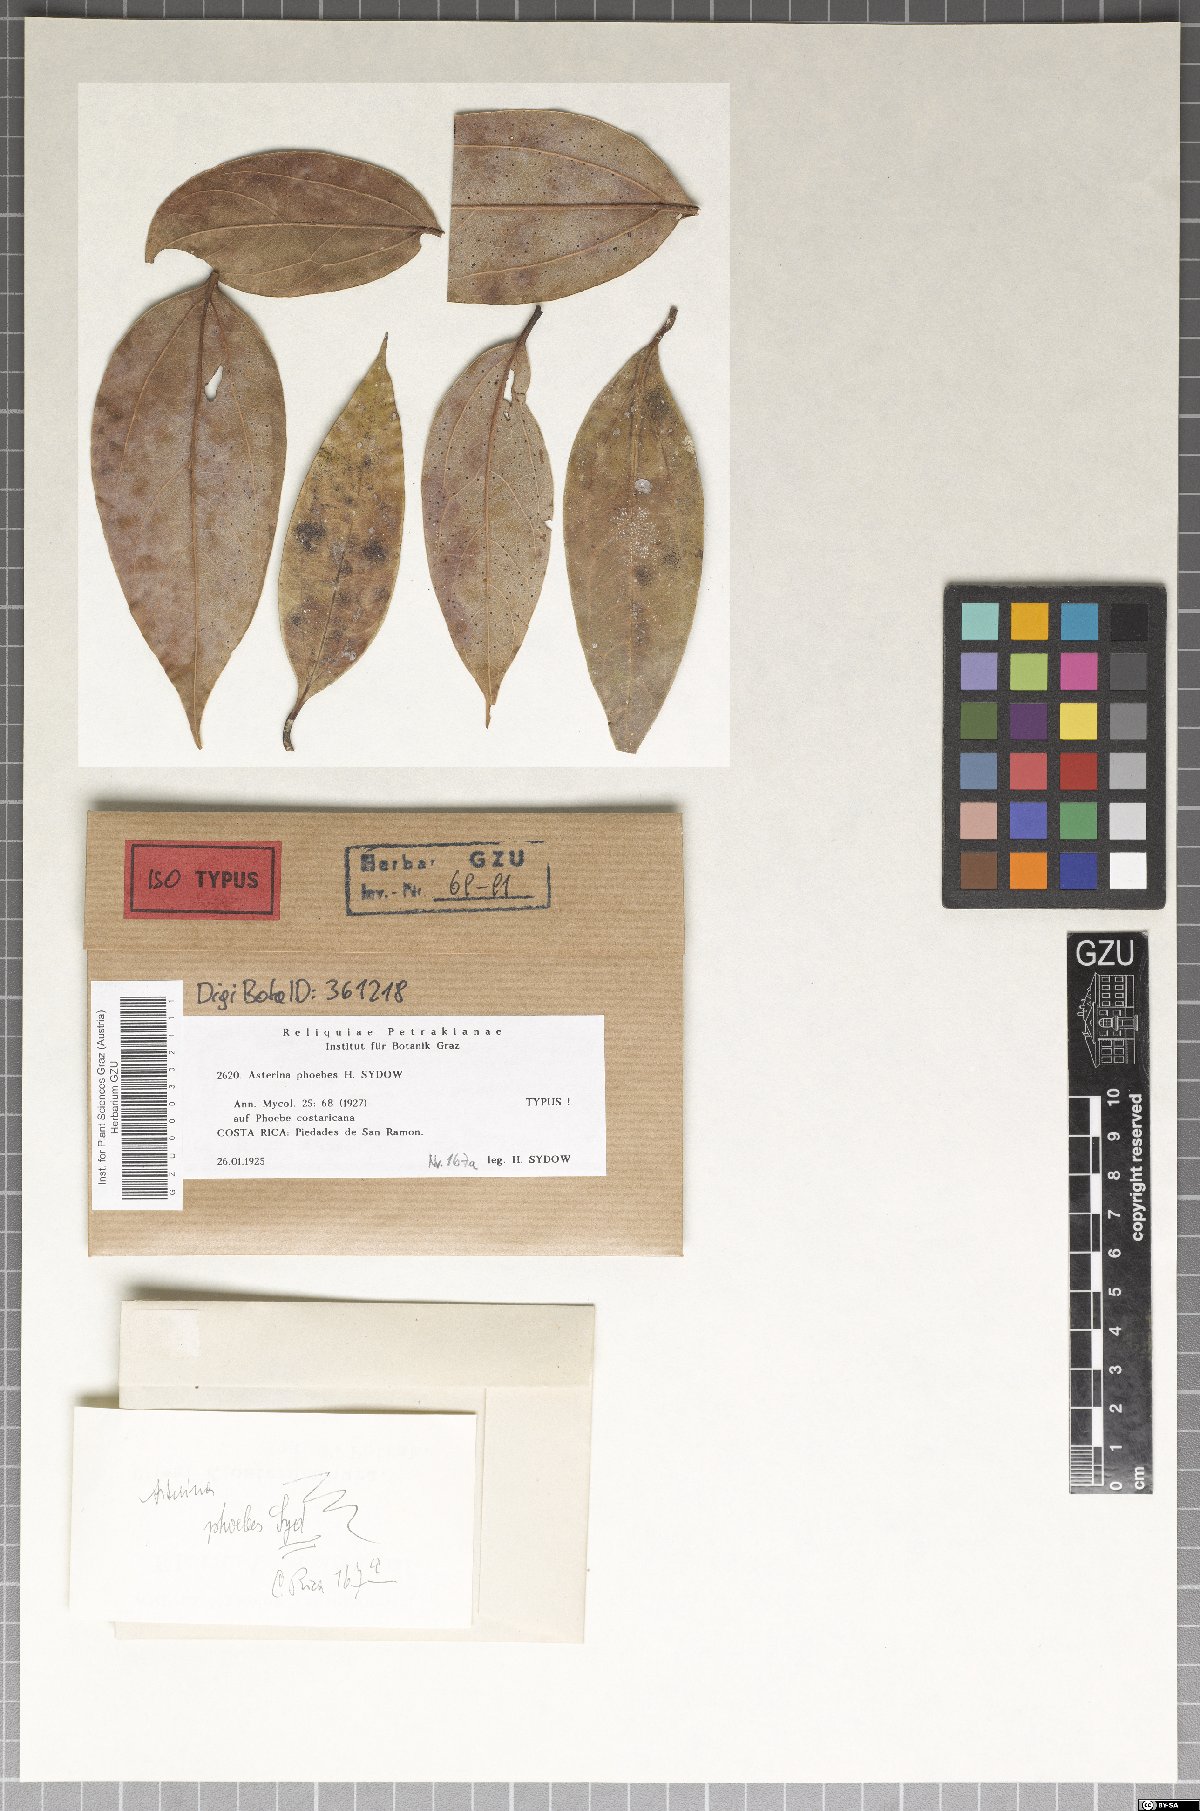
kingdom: Fungi
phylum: Ascomycota
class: Dothideomycetes
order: Asterinales
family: Asterinaceae
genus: Asterina
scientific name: Asterina phoebes
